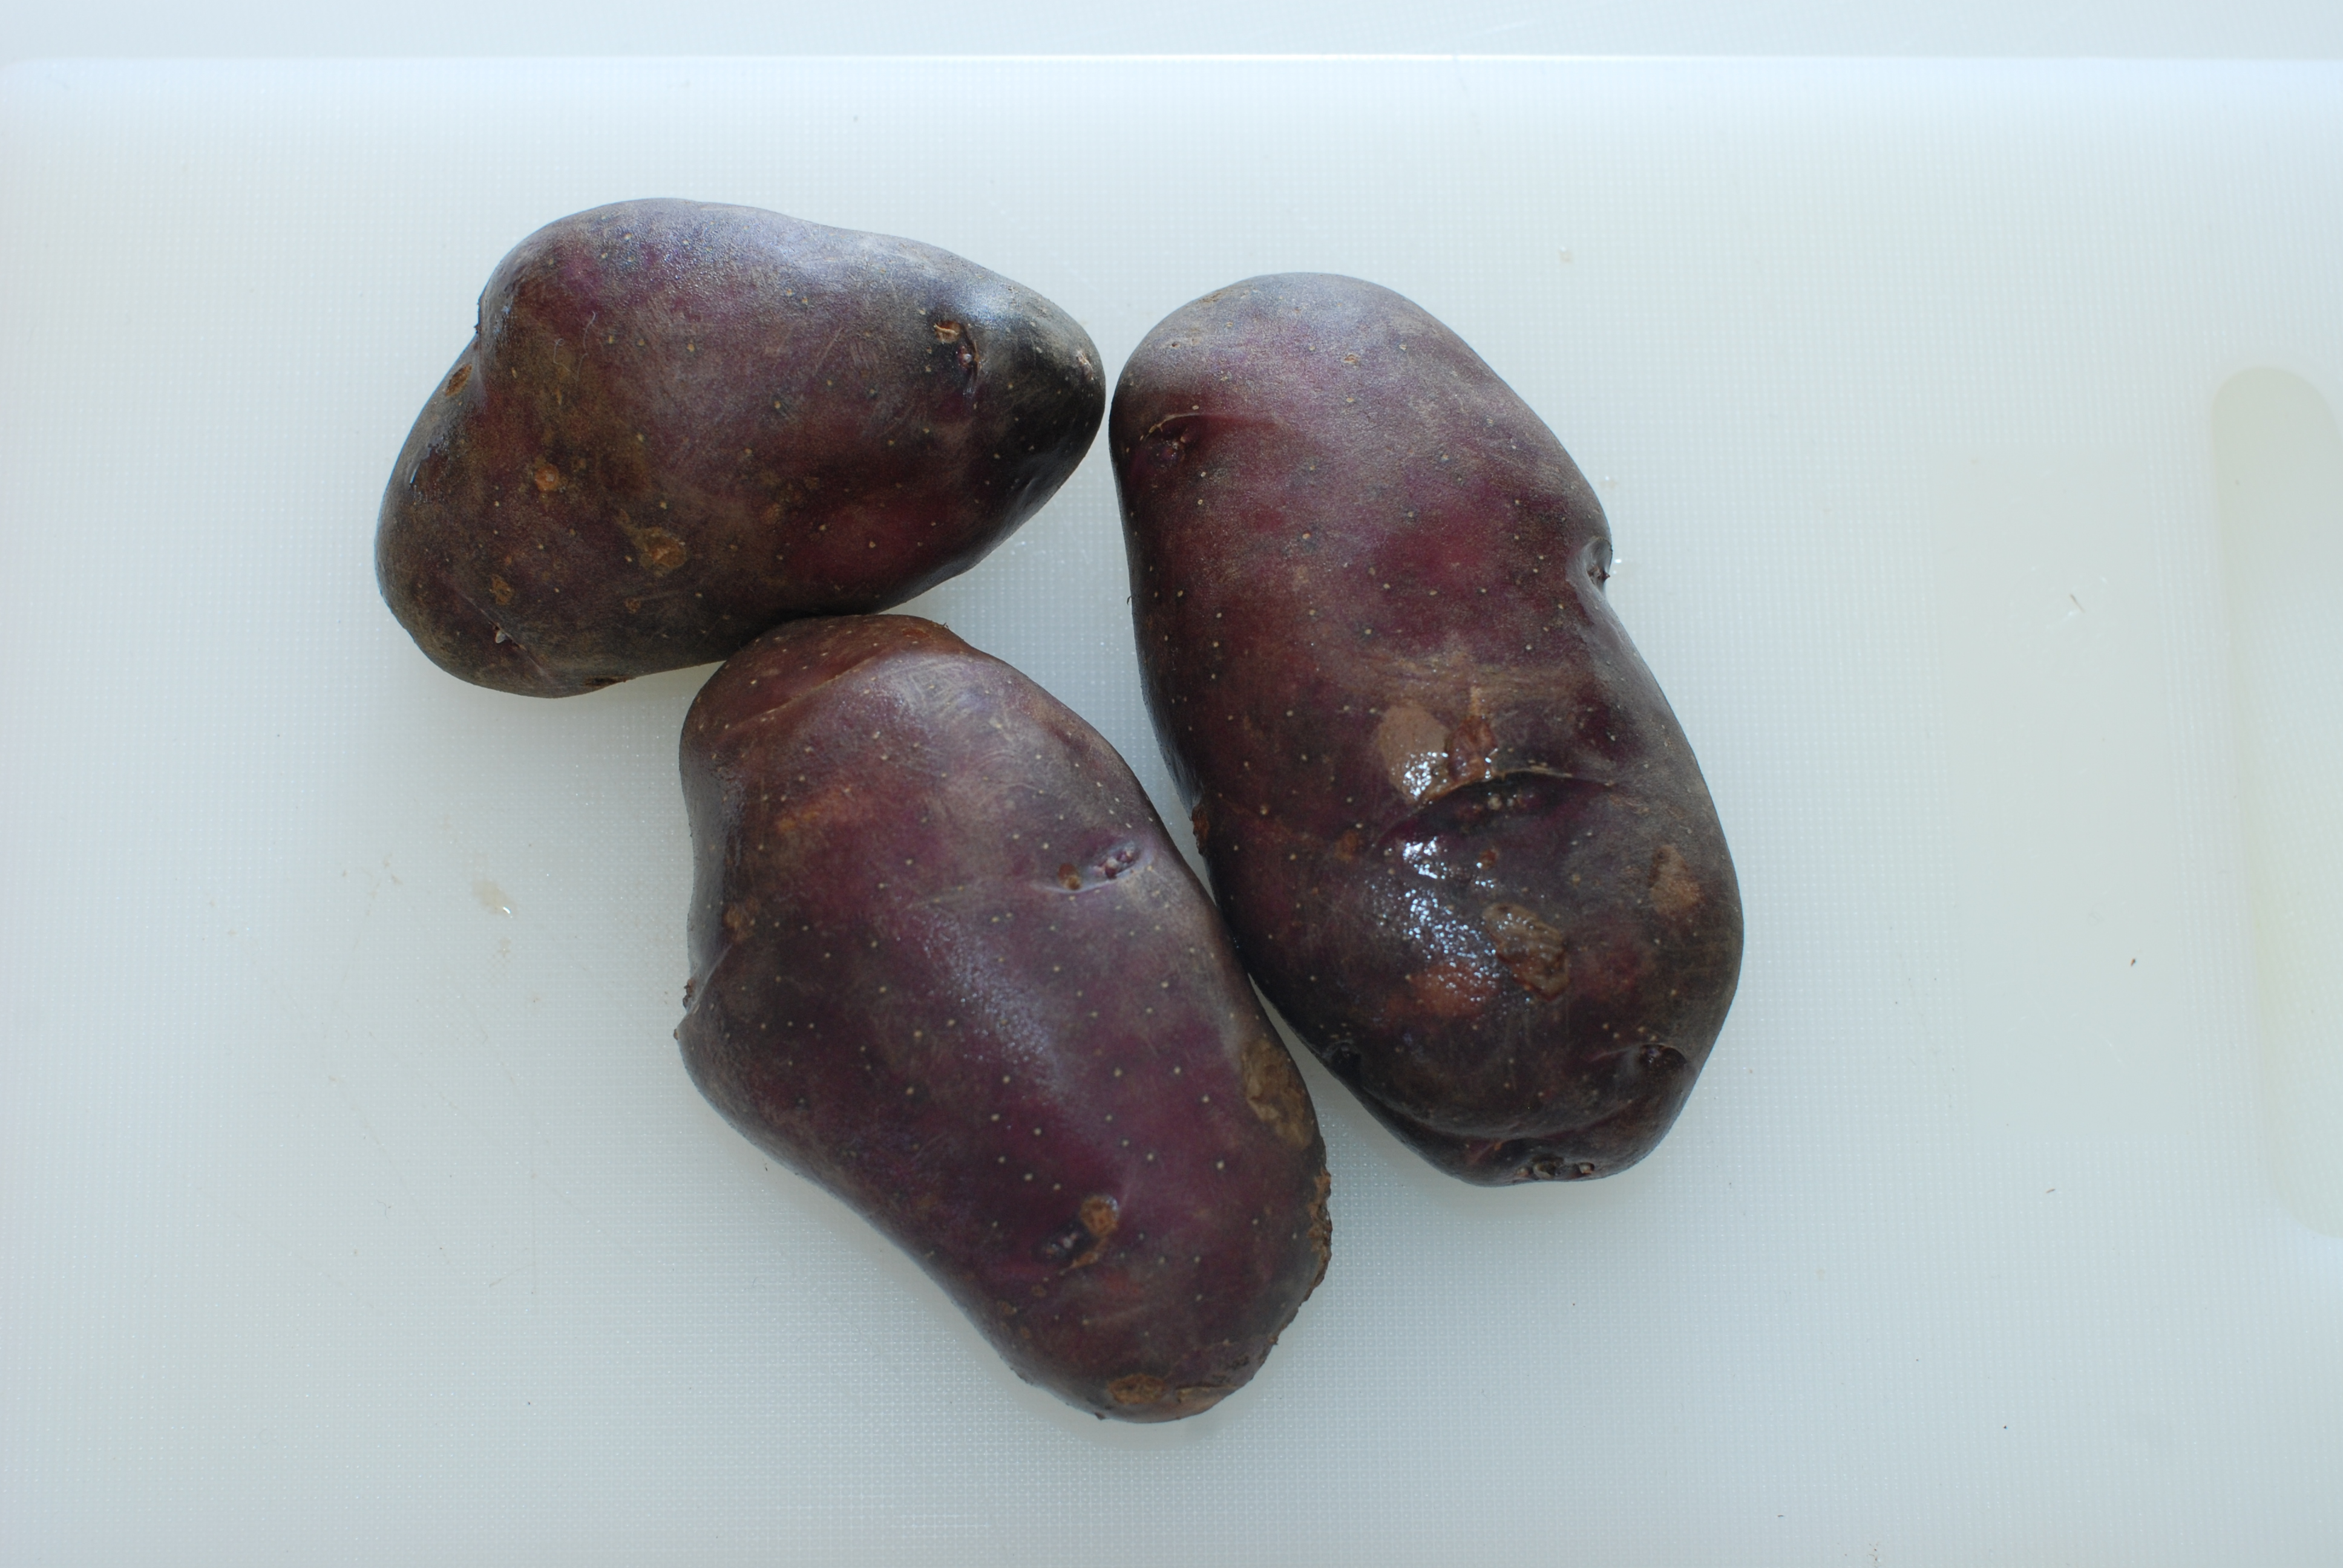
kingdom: Plantae
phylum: Tracheophyta
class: Magnoliopsida
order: Solanales
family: Solanaceae
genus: Solanum
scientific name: Solanum tuberosum
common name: Potato
